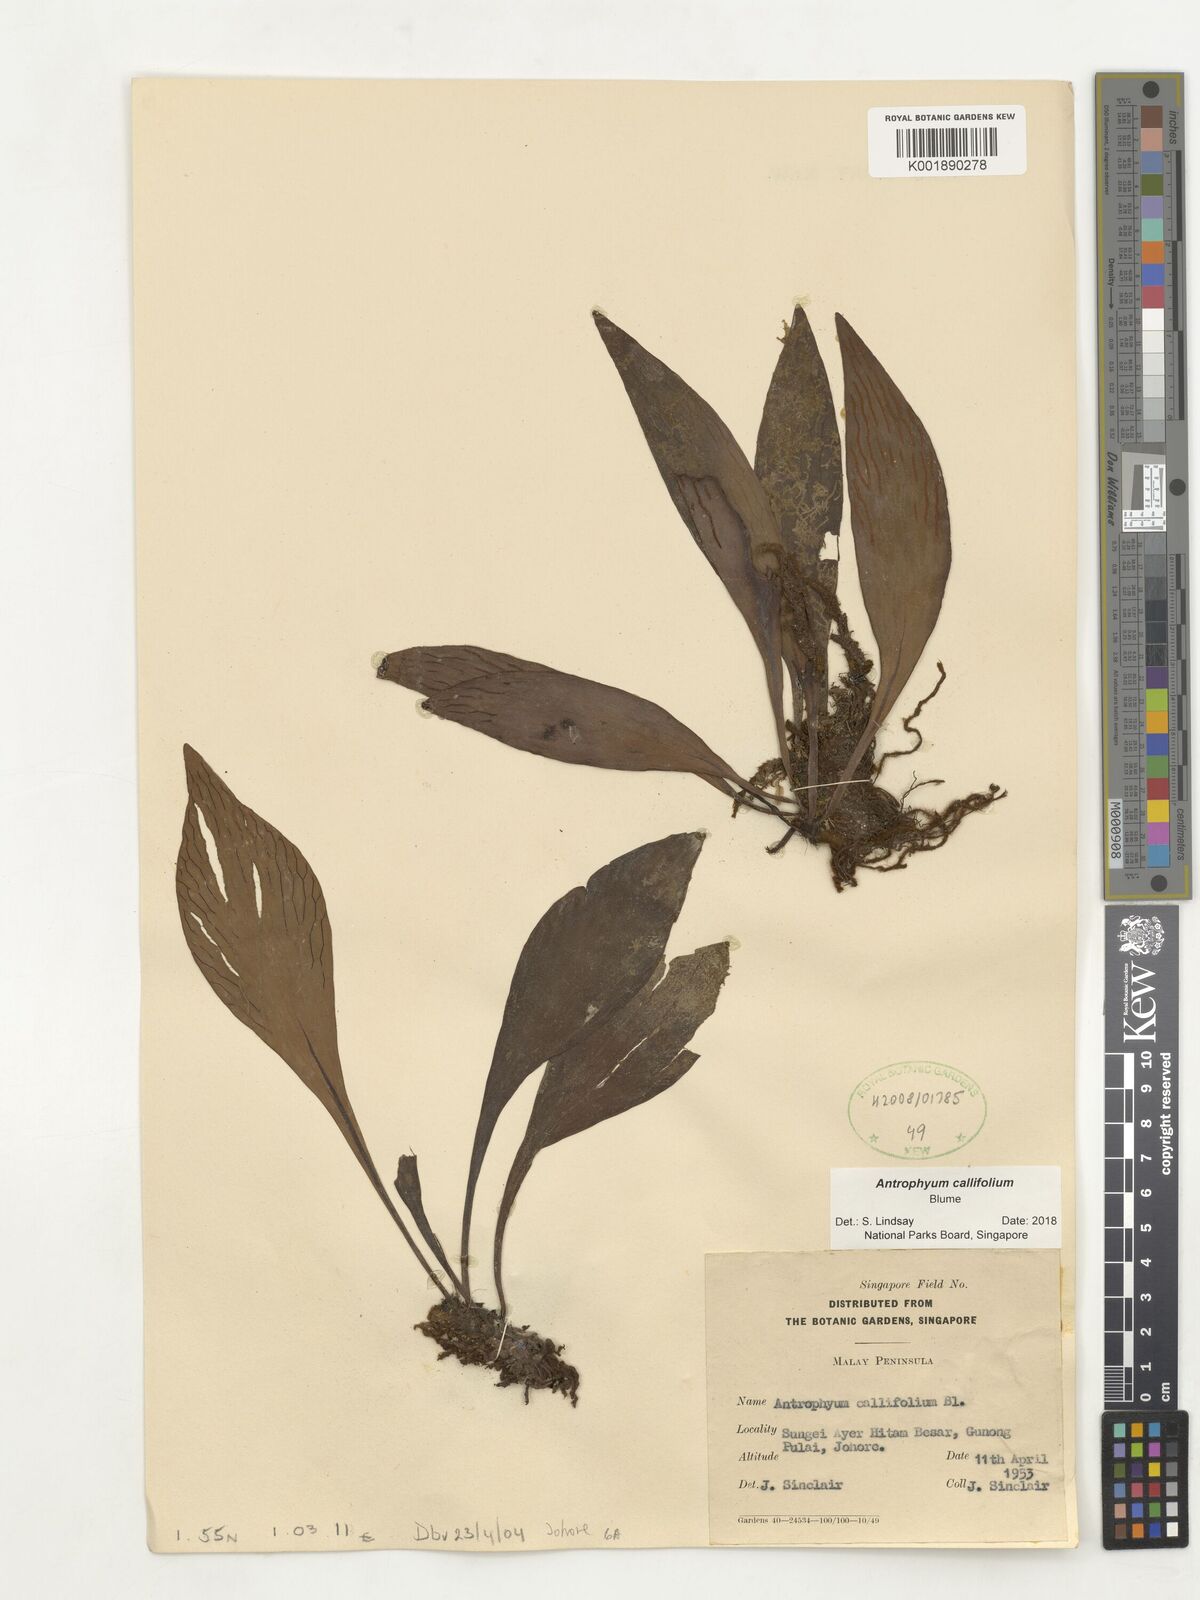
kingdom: Plantae
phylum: Tracheophyta
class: Polypodiopsida
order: Polypodiales
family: Pteridaceae
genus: Antrophyum
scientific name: Antrophyum callifolium
